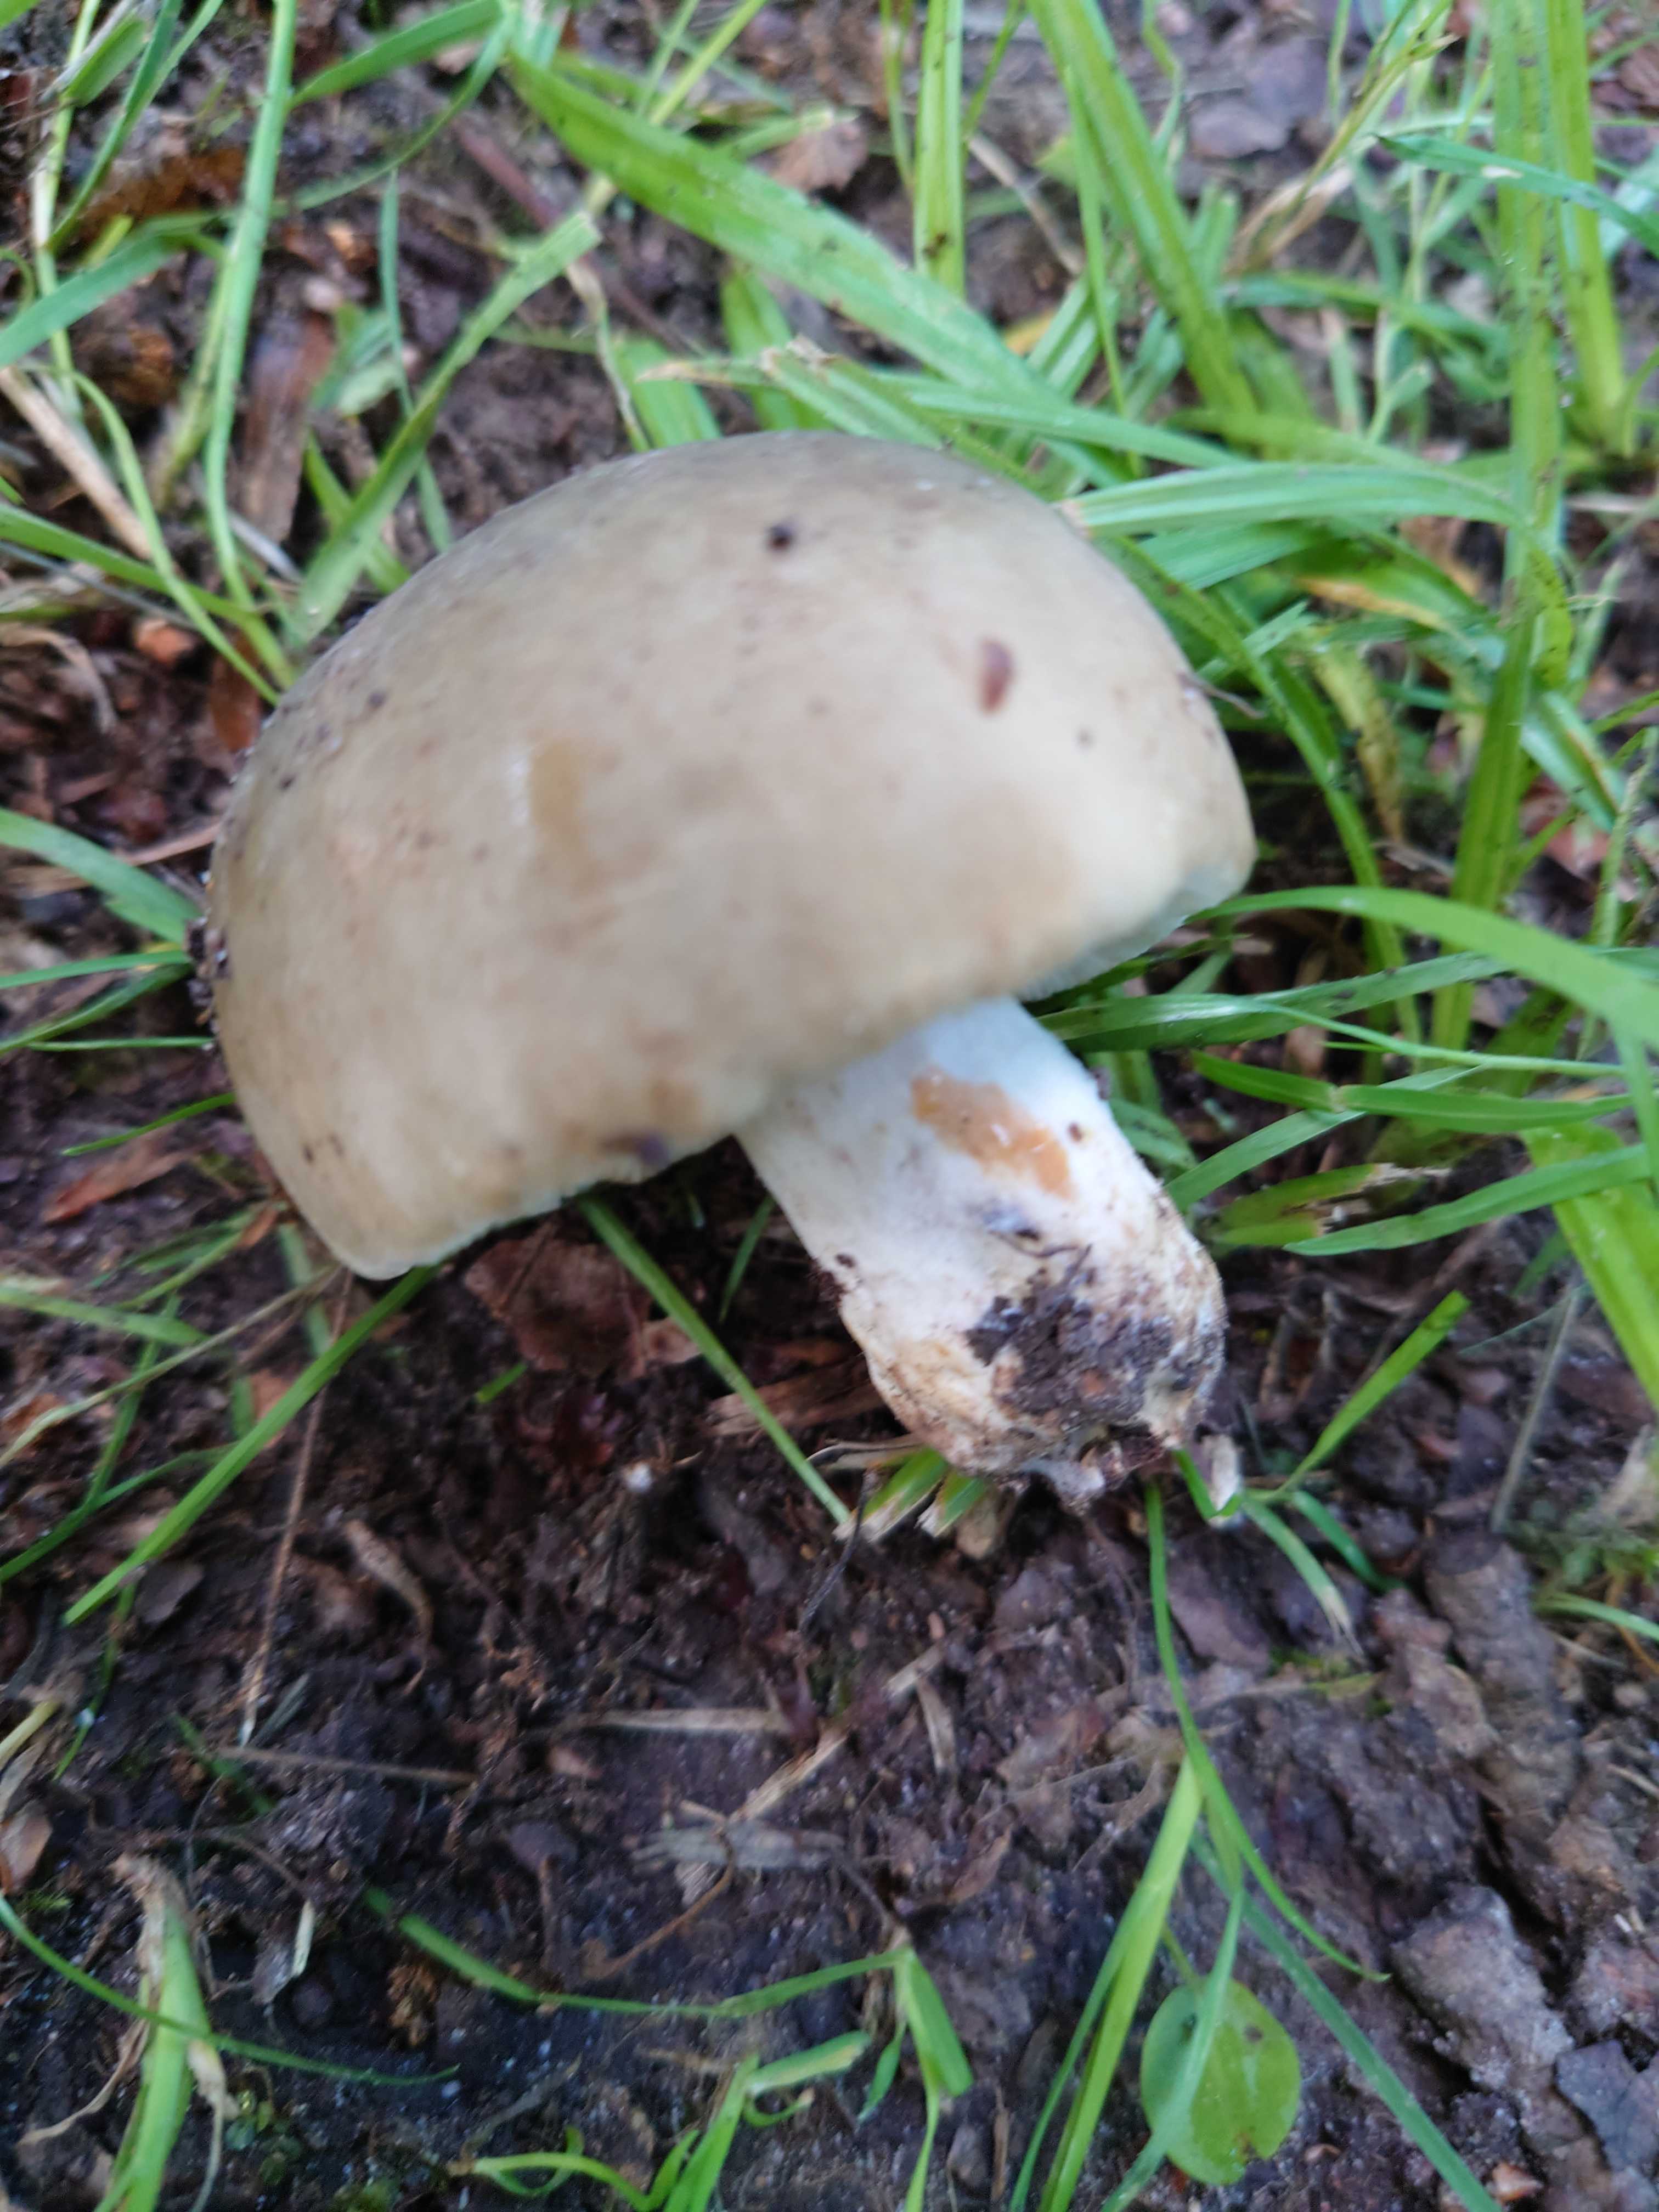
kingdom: Fungi
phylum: Basidiomycota
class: Agaricomycetes
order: Russulales
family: Russulaceae
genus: Russula
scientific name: Russula heterophylla
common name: gaffelbladet skørhat
